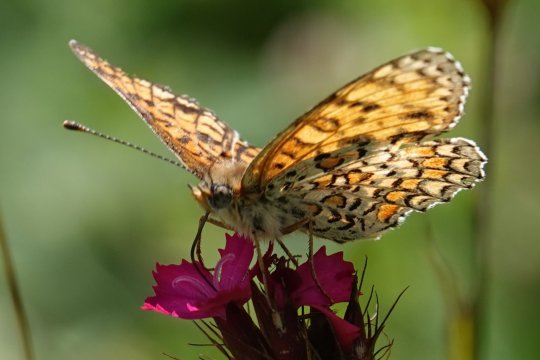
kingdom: Animalia
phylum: Arthropoda
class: Insecta
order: Lepidoptera
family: Nymphalidae
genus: Melitaea
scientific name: Melitaea phoebe
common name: Knapweed Fritillary
